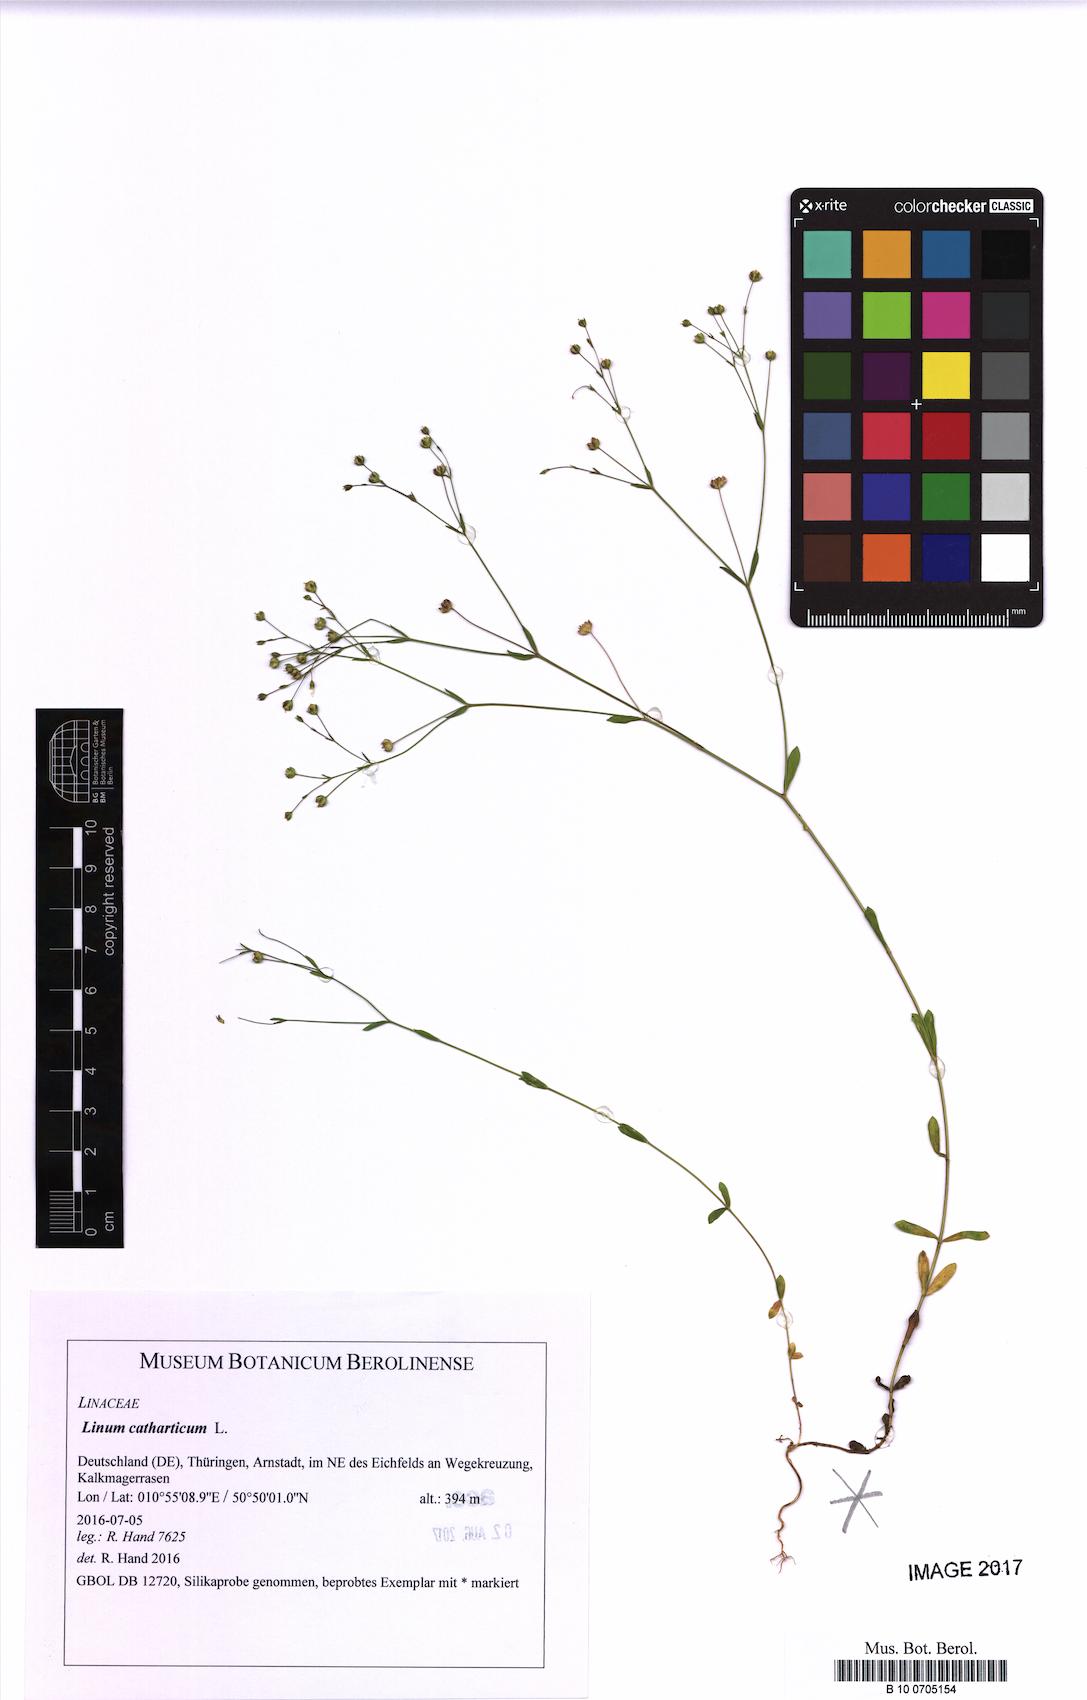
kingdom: Plantae
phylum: Tracheophyta
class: Magnoliopsida
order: Malpighiales
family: Linaceae
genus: Linum
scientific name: Linum catharticum
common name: Fairy flax
